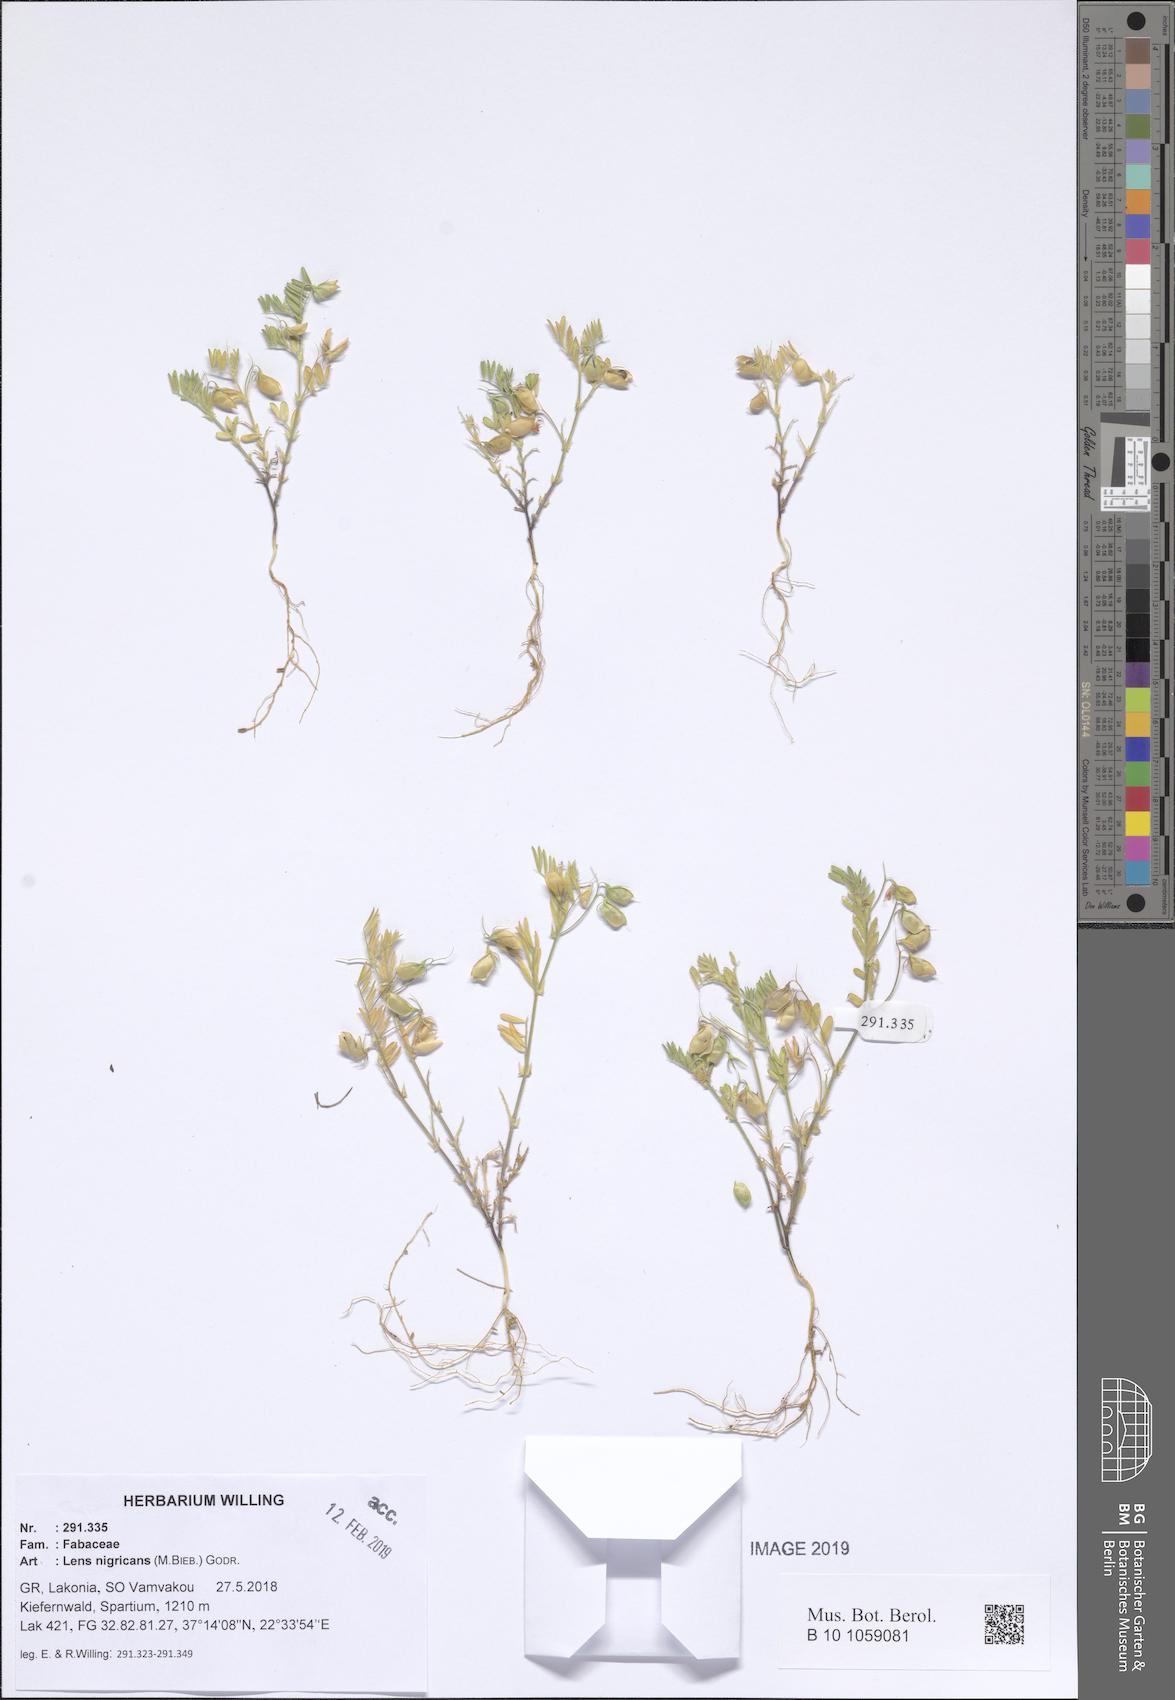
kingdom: Plantae
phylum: Tracheophyta
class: Magnoliopsida
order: Fabales
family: Fabaceae
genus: Vicia
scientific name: Vicia lentoides
